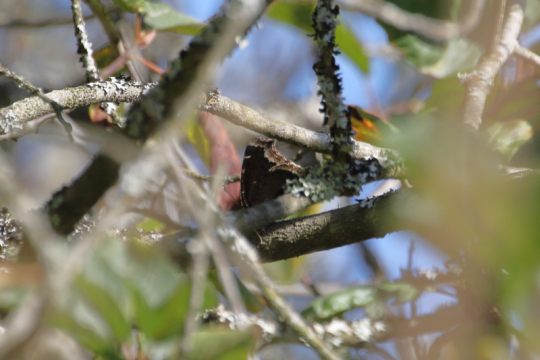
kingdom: Animalia
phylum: Arthropoda
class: Insecta
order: Lepidoptera
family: Nymphalidae
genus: Nymphalis
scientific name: Nymphalis antiopa
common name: Mourning Cloak
